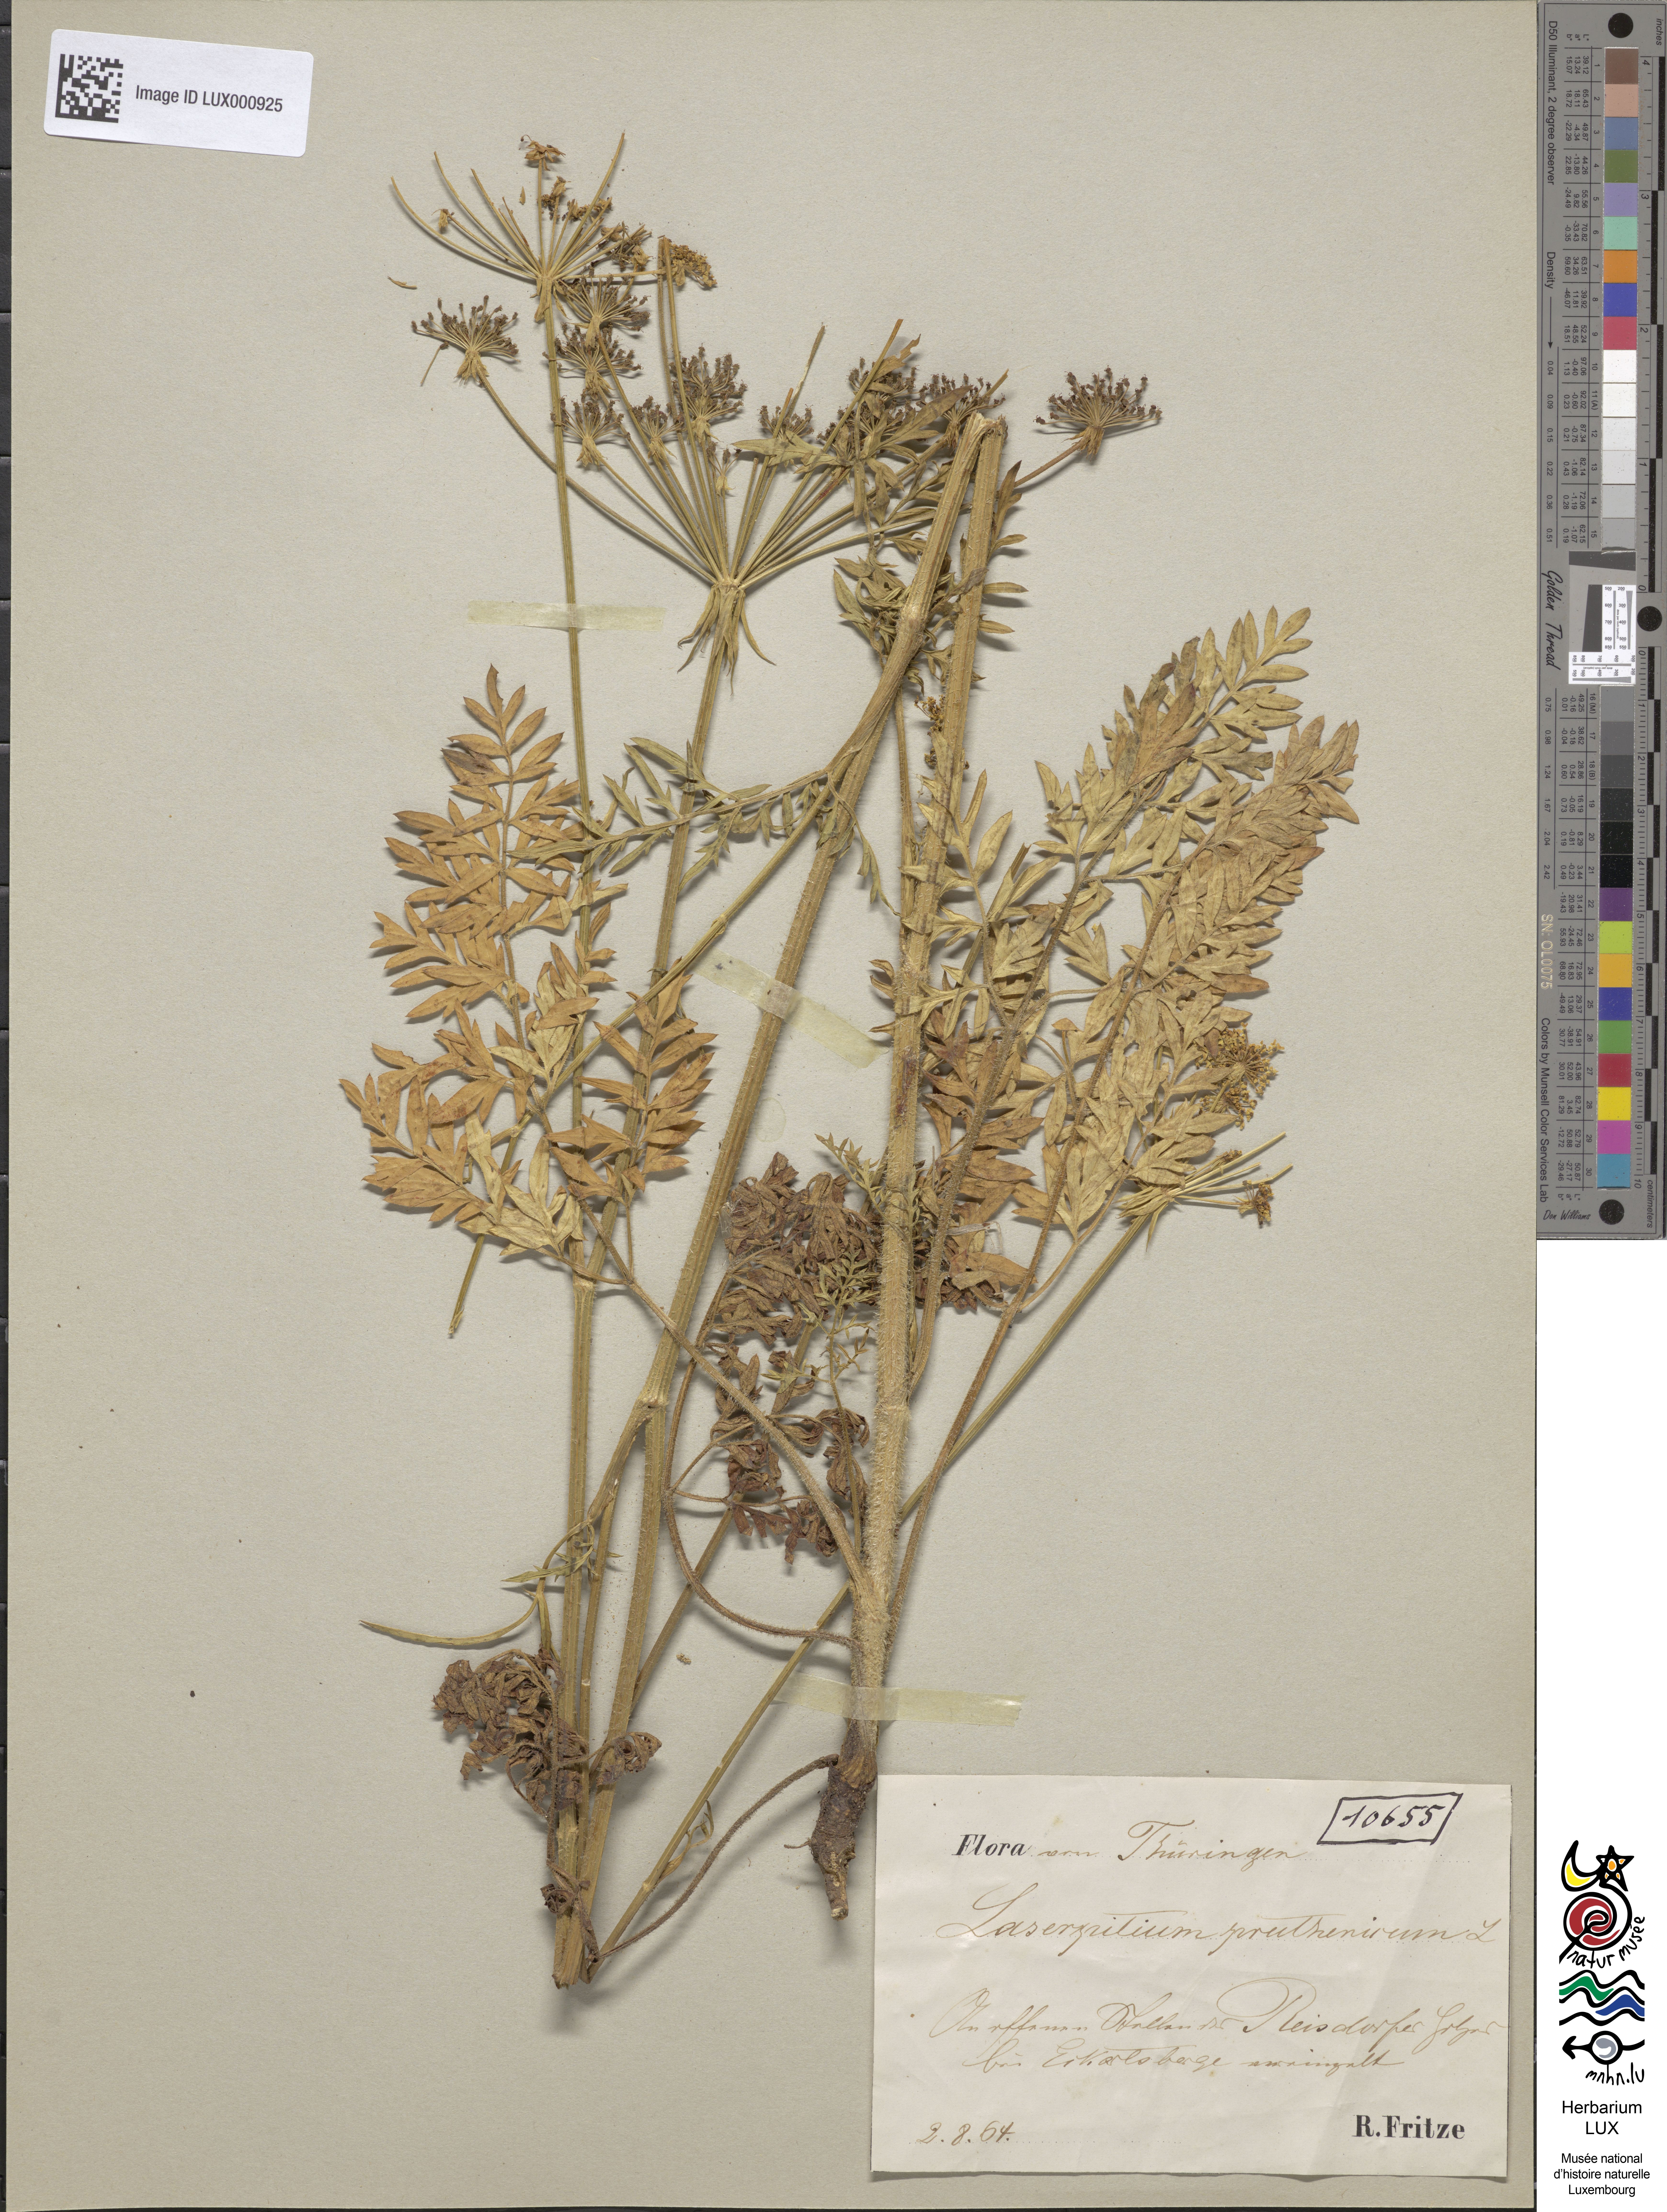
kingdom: Plantae
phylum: Tracheophyta
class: Magnoliopsida
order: Apiales
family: Apiaceae
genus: Silphiodaucus
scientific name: Silphiodaucus prutenicus
